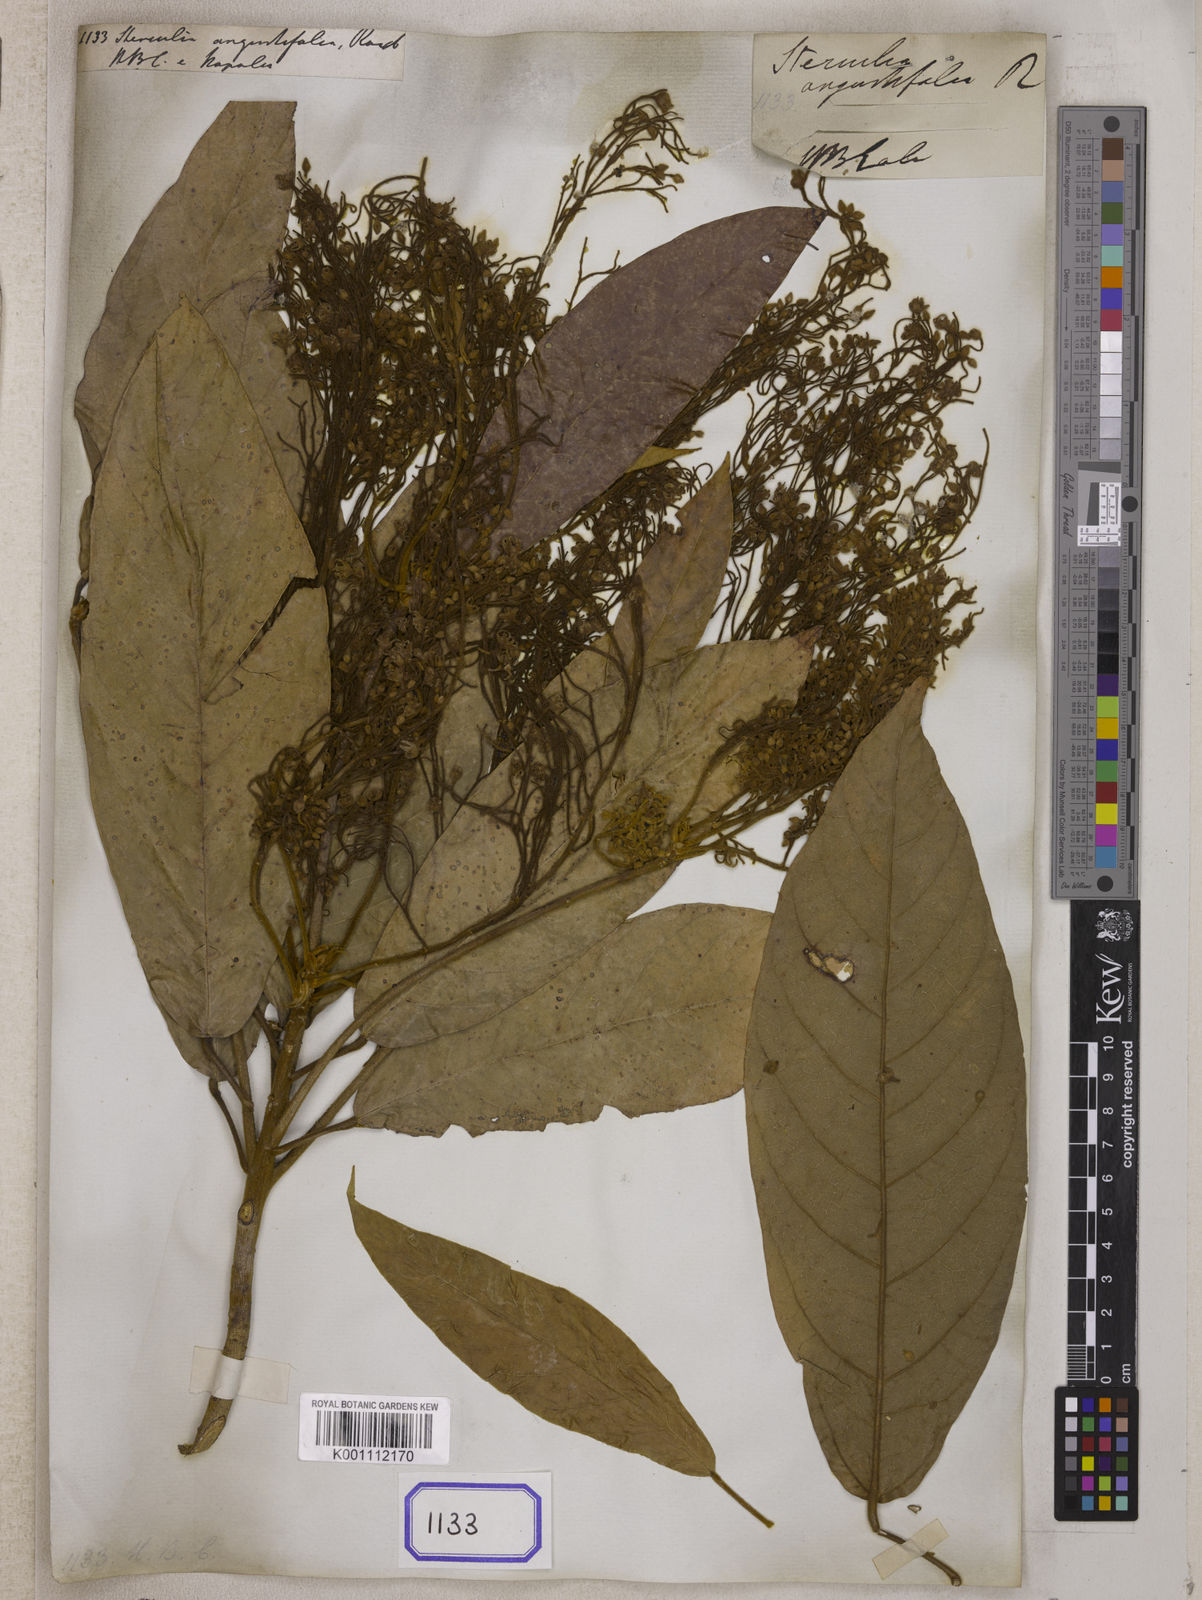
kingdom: Plantae
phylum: Tracheophyta
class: Magnoliopsida
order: Malvales
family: Malvaceae
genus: Sterculia
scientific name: Sterculia
